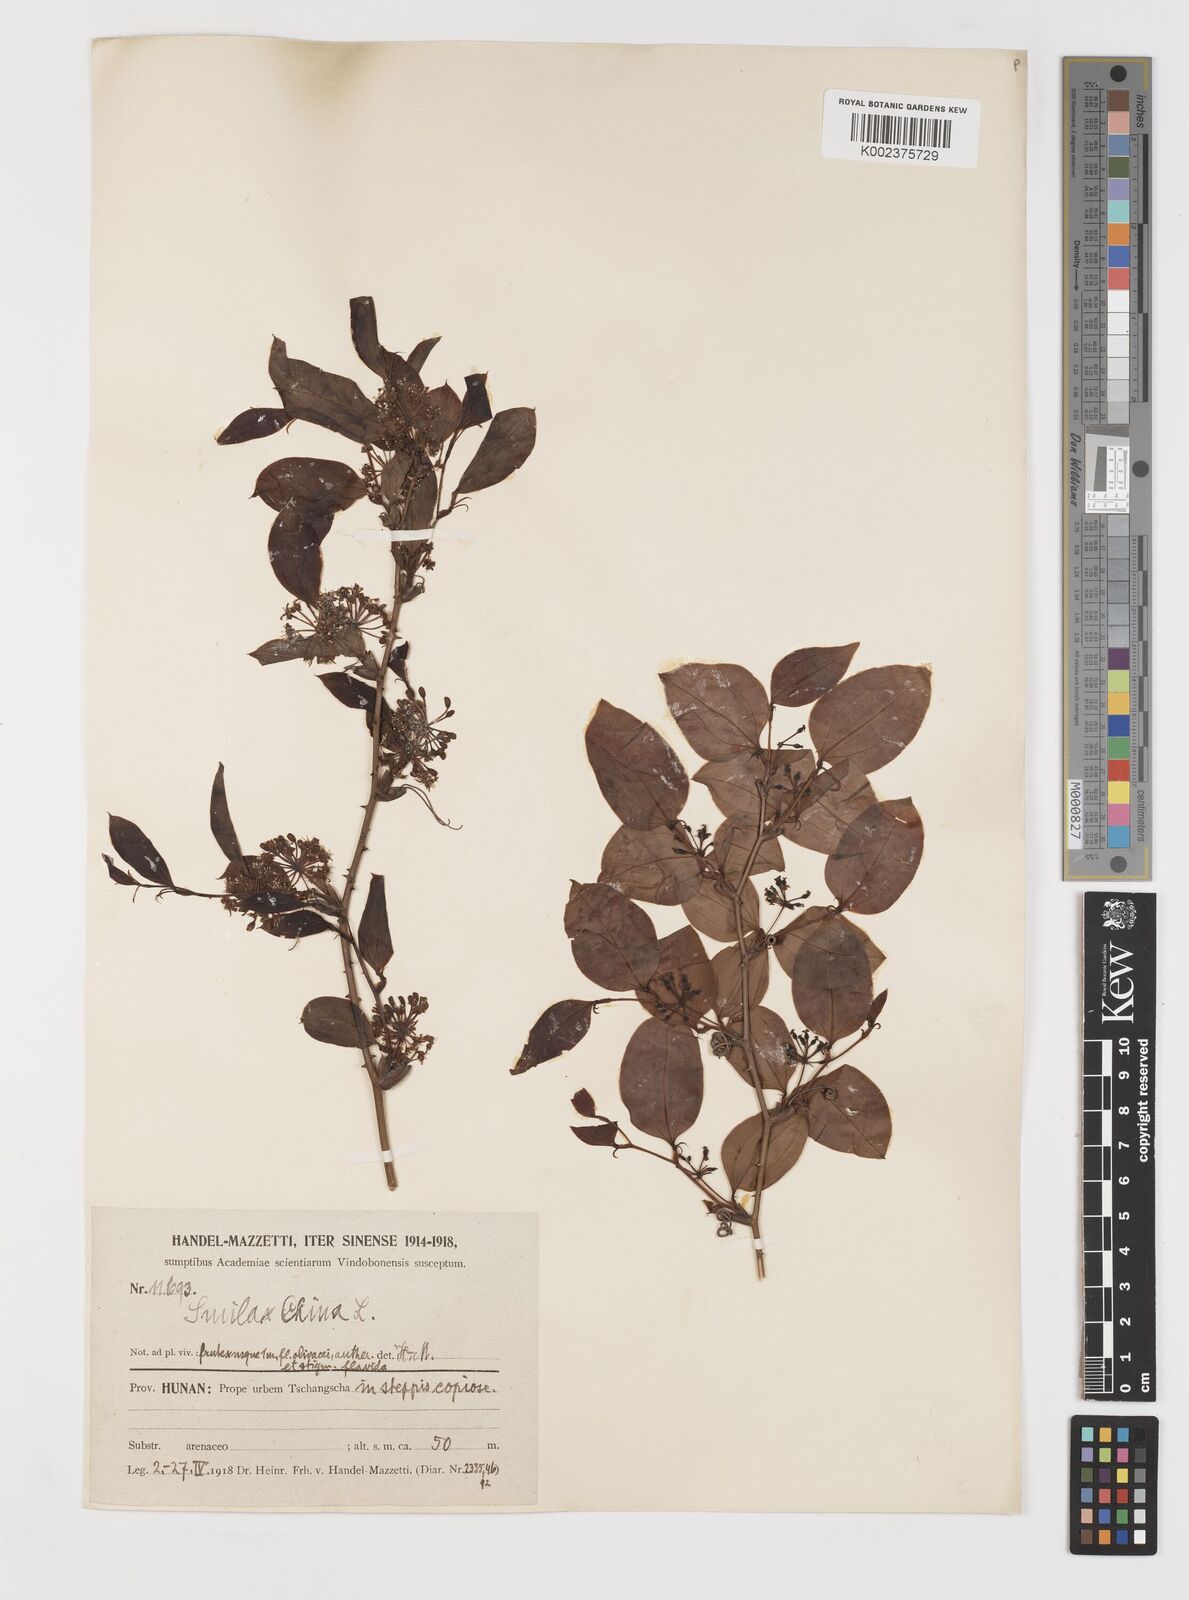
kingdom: Plantae
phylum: Tracheophyta
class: Liliopsida
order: Liliales
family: Smilacaceae
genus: Smilax
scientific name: Smilax china
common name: Chinaroot
